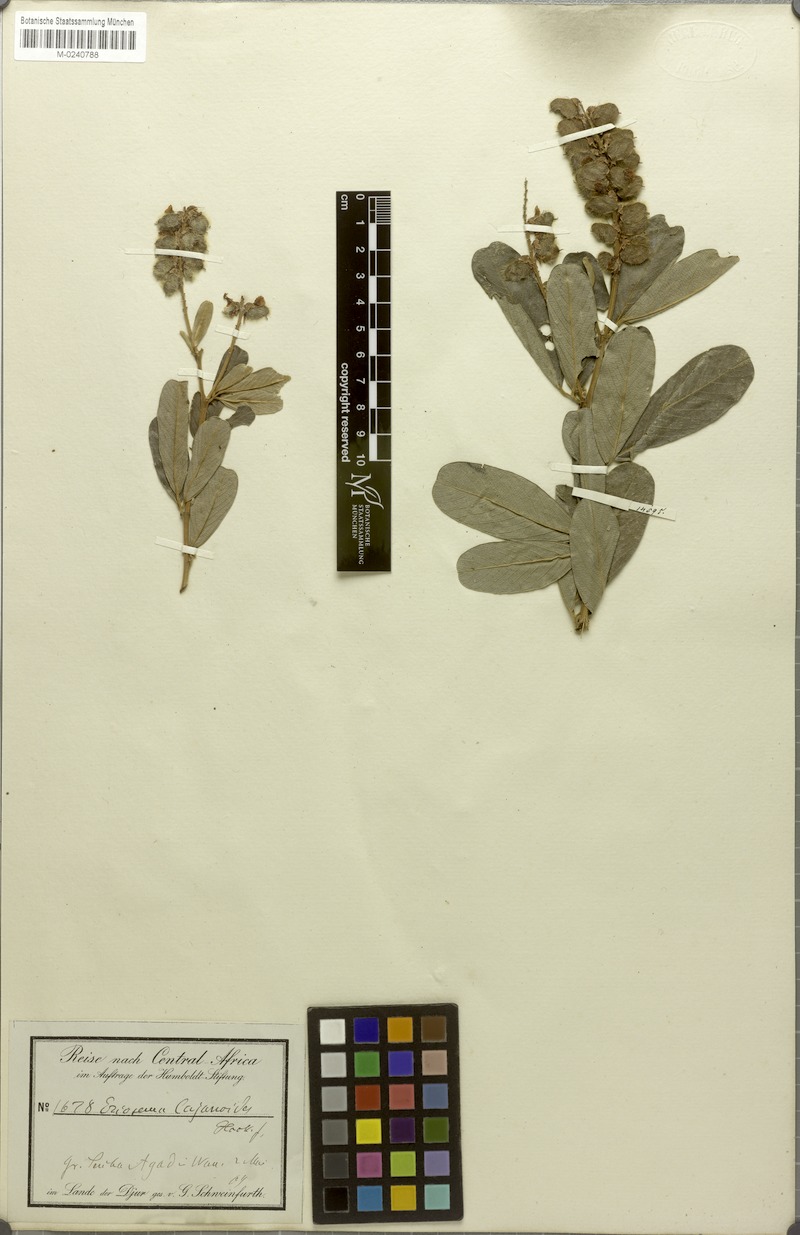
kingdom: Plantae
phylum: Tracheophyta
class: Magnoliopsida
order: Fabales
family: Fabaceae
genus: Eriosema
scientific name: Eriosema psoraleoides
